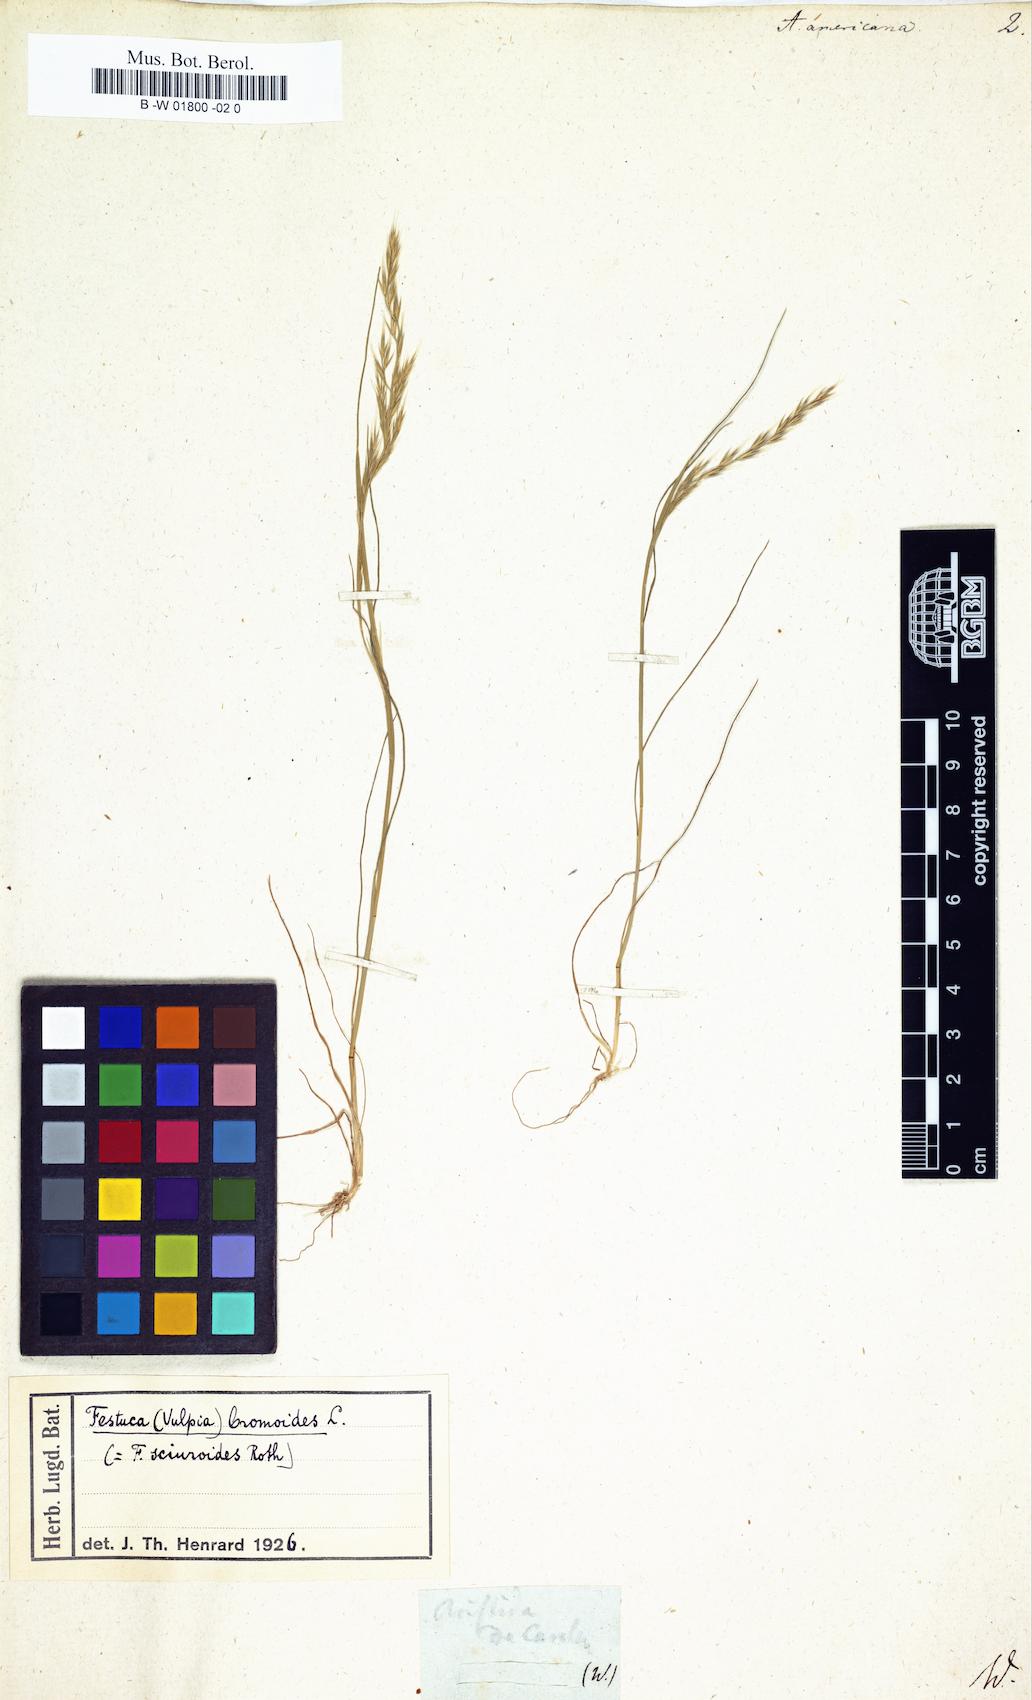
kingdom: Plantae
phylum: Tracheophyta
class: Liliopsida
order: Poales
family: Poaceae
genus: Bouteloua
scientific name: Bouteloua americana
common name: Mule grass
